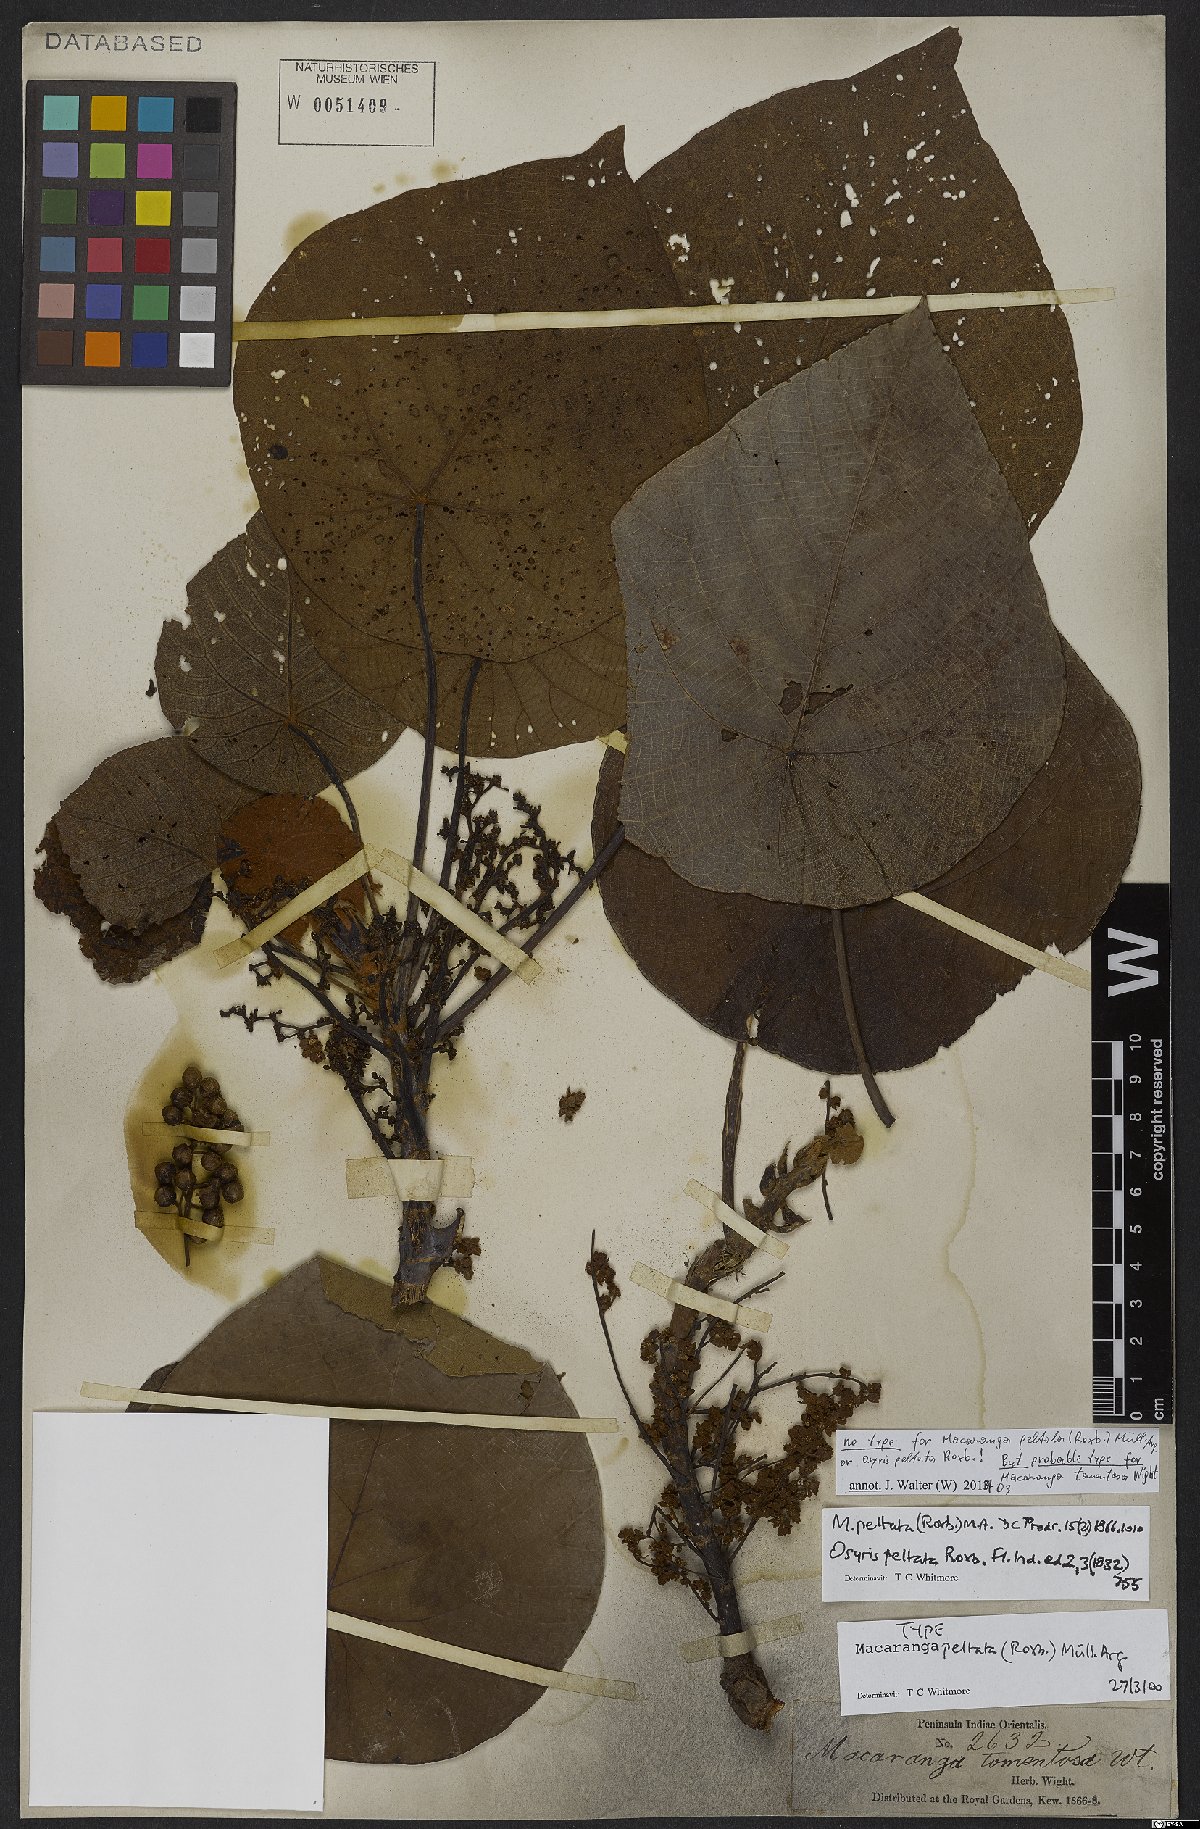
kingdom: Plantae
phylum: Tracheophyta
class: Magnoliopsida
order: Malpighiales
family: Euphorbiaceae
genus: Macaranga
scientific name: Macaranga peltata
